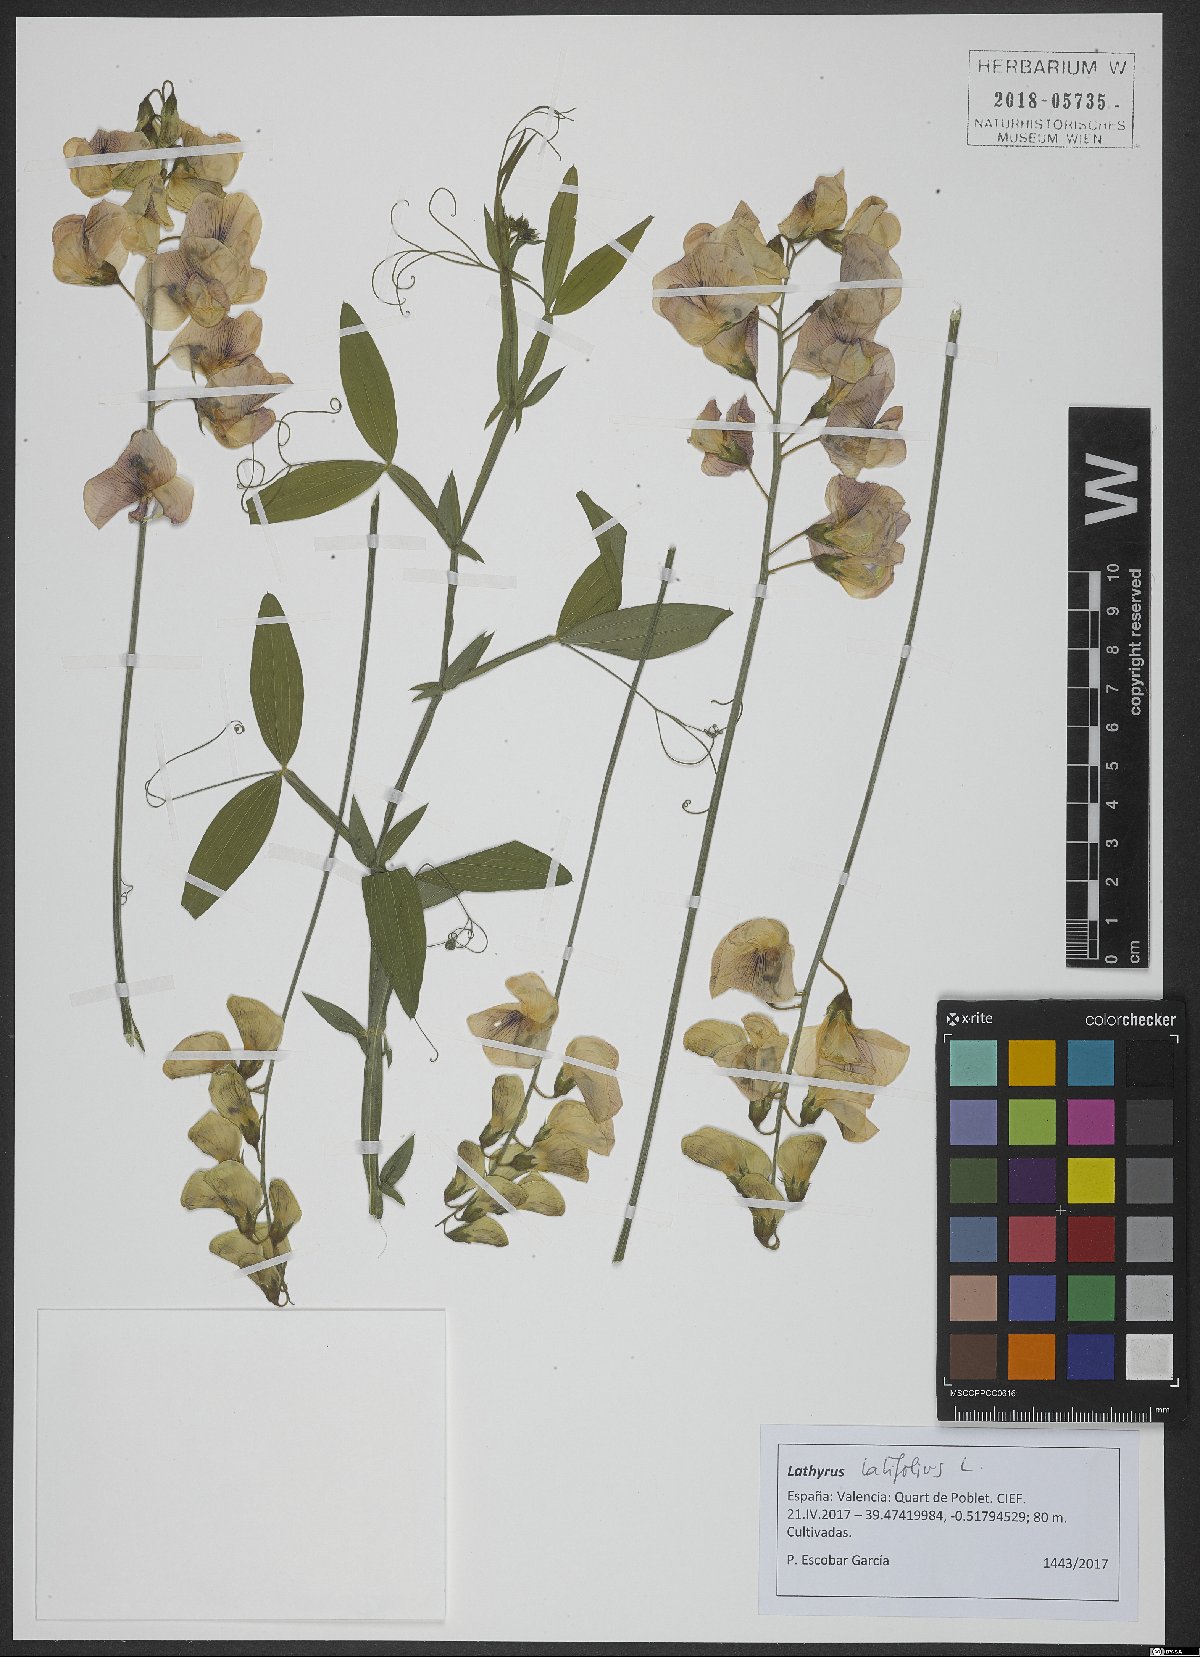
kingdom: Plantae
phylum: Tracheophyta
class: Magnoliopsida
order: Fabales
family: Fabaceae
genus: Lathyrus
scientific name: Lathyrus latifolius
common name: Perennial pea
